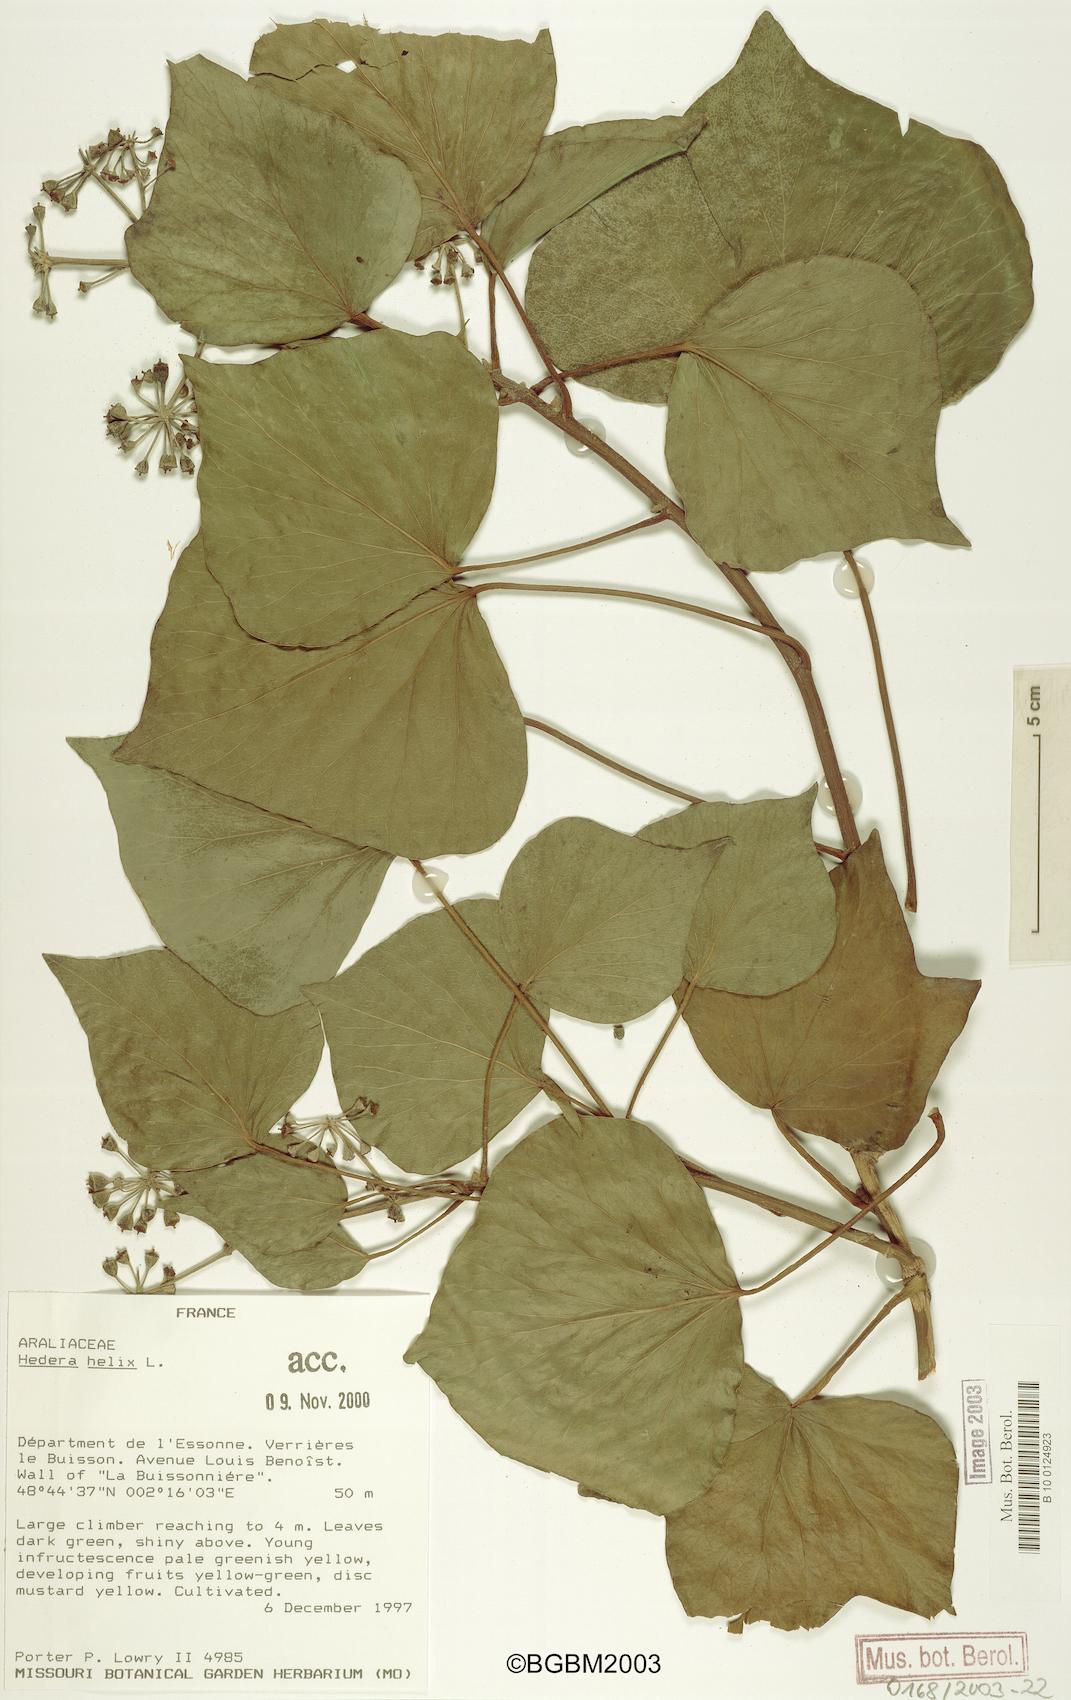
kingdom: Plantae
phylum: Tracheophyta
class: Magnoliopsida
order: Apiales
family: Araliaceae
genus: Hedera
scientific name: Hedera helix
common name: Ivy
